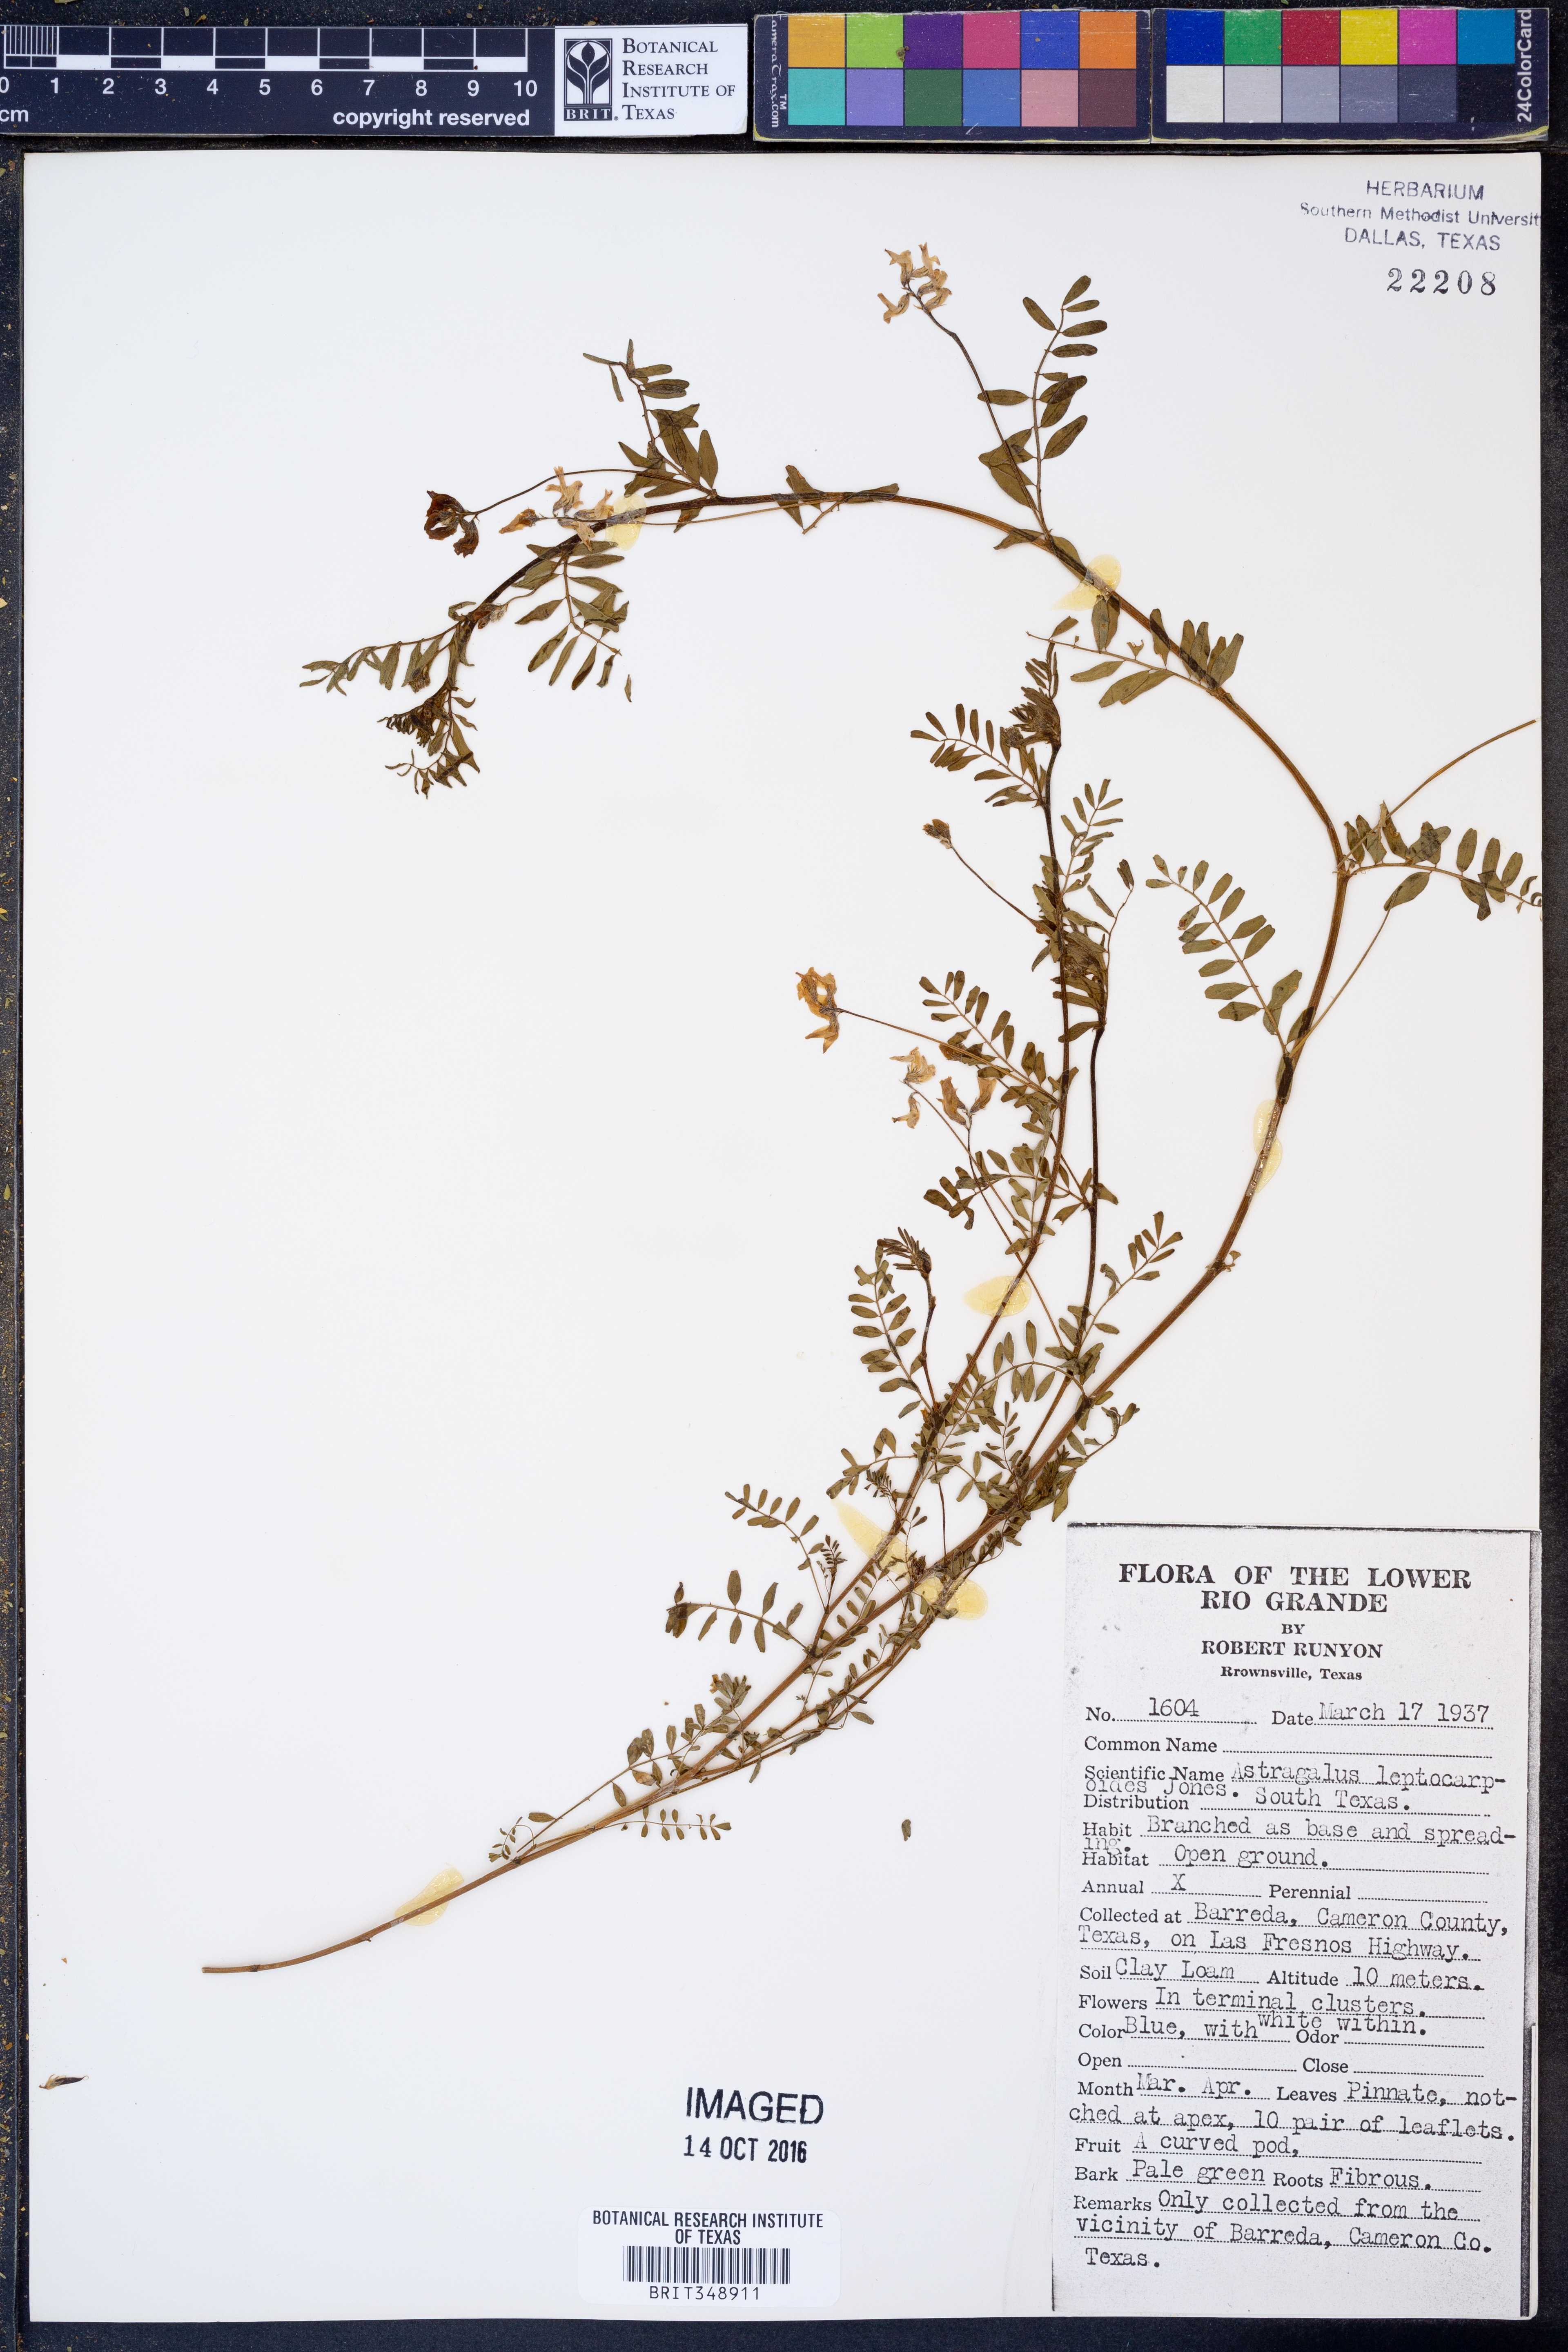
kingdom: Plantae
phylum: Tracheophyta
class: Magnoliopsida
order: Fabales
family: Fabaceae
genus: Astragalus
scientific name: Astragalus leptocarpus
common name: Bodkin milk-vetch
